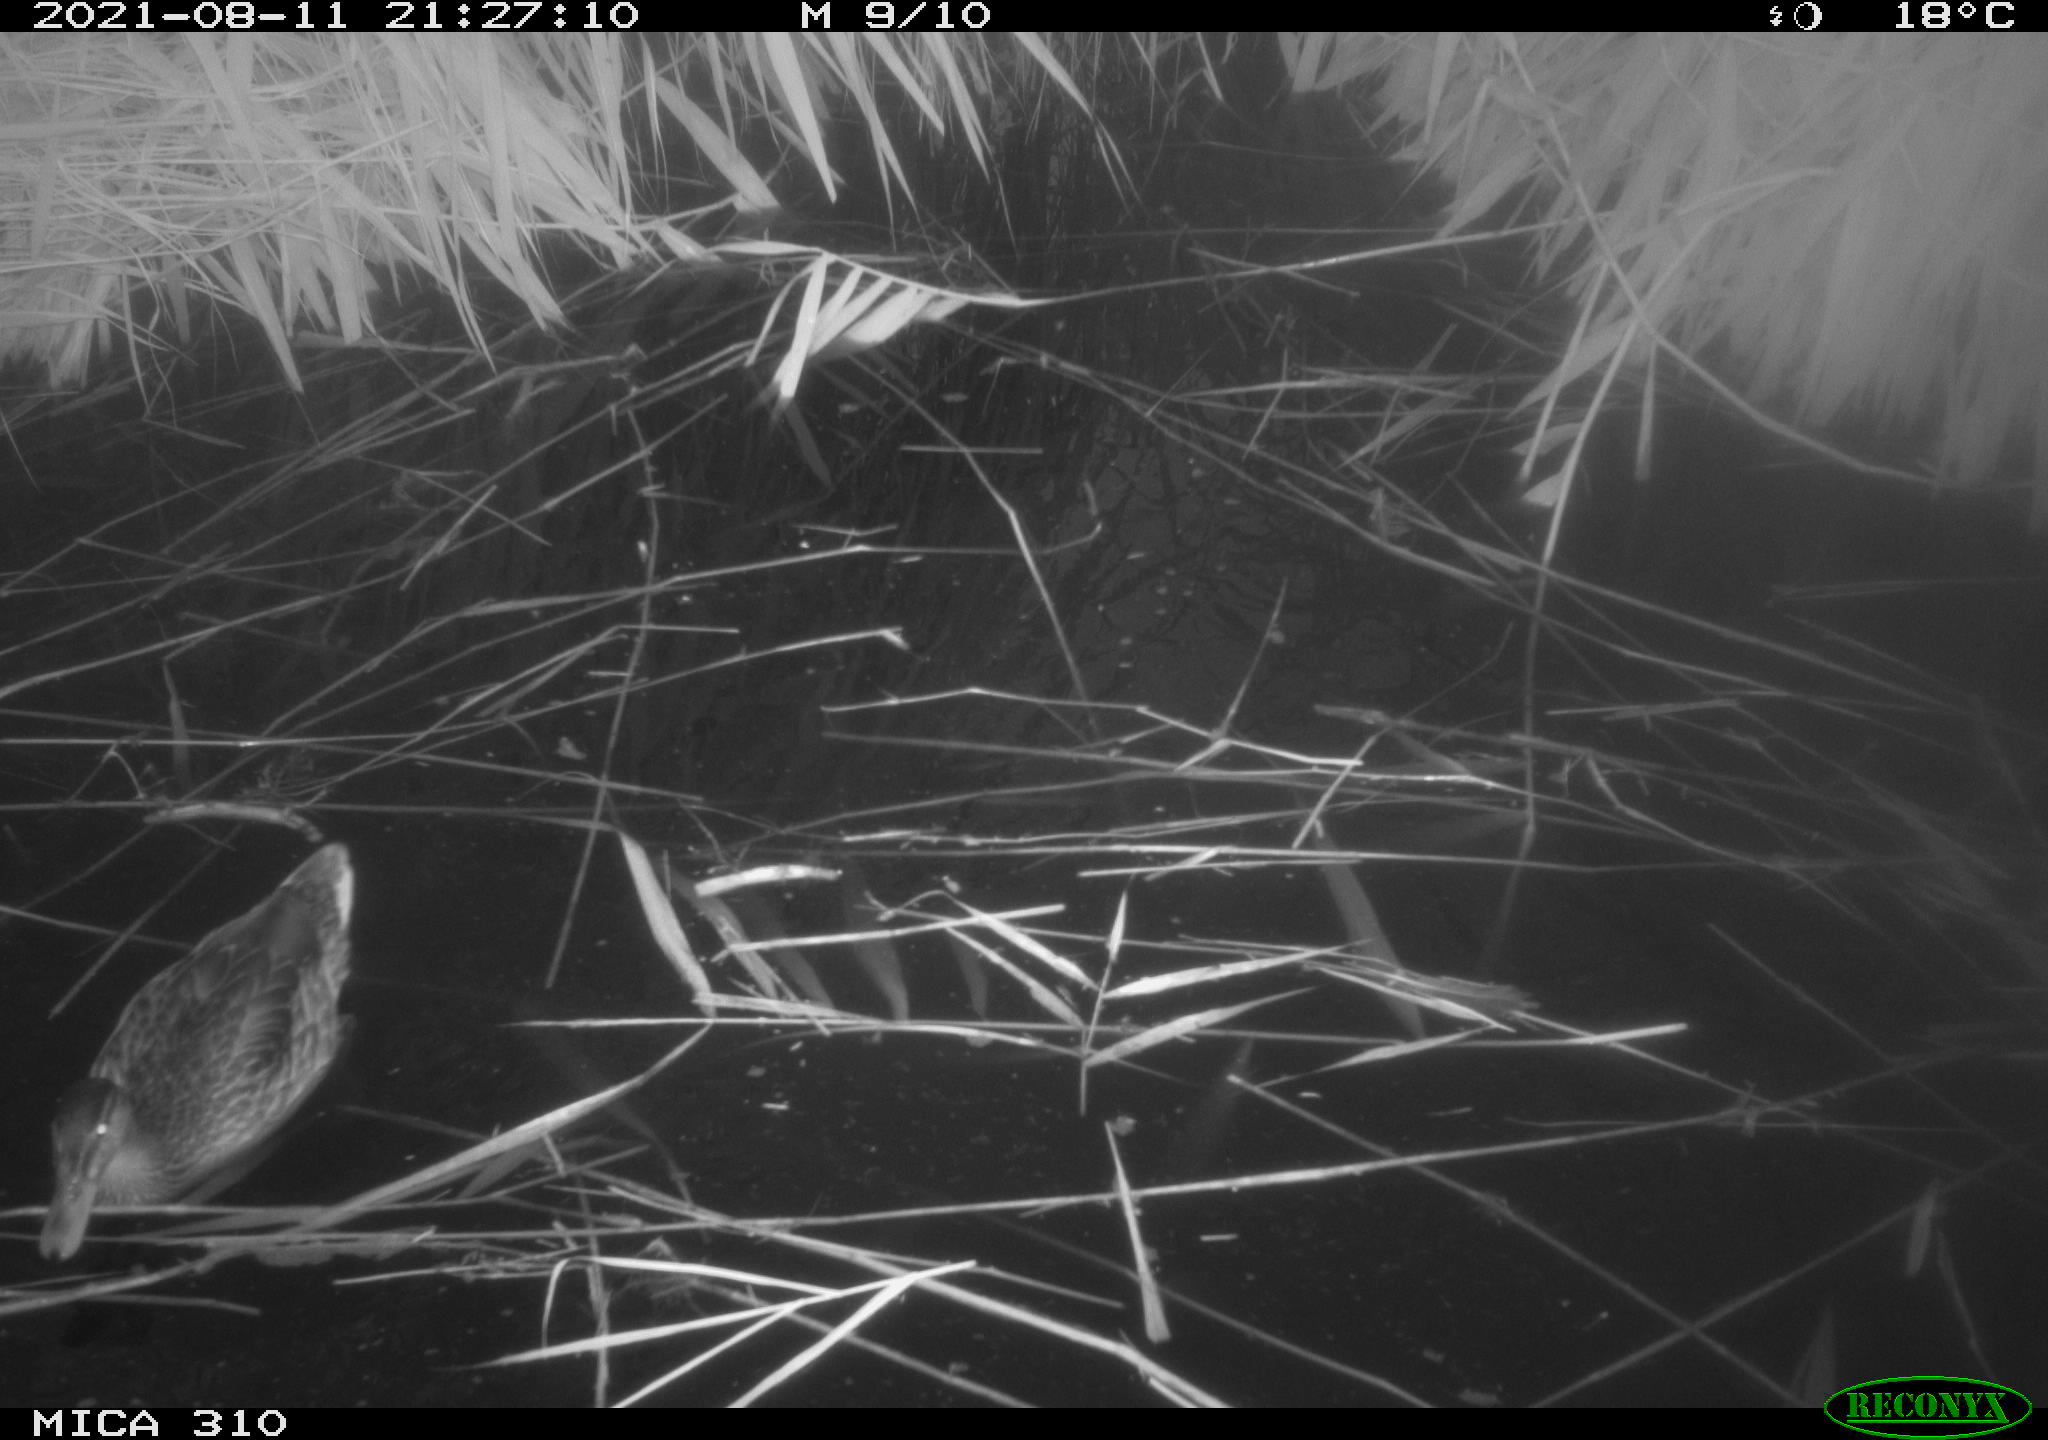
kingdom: Animalia
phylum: Chordata
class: Aves
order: Anseriformes
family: Anatidae
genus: Anas
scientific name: Anas platyrhynchos
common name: Mallard
